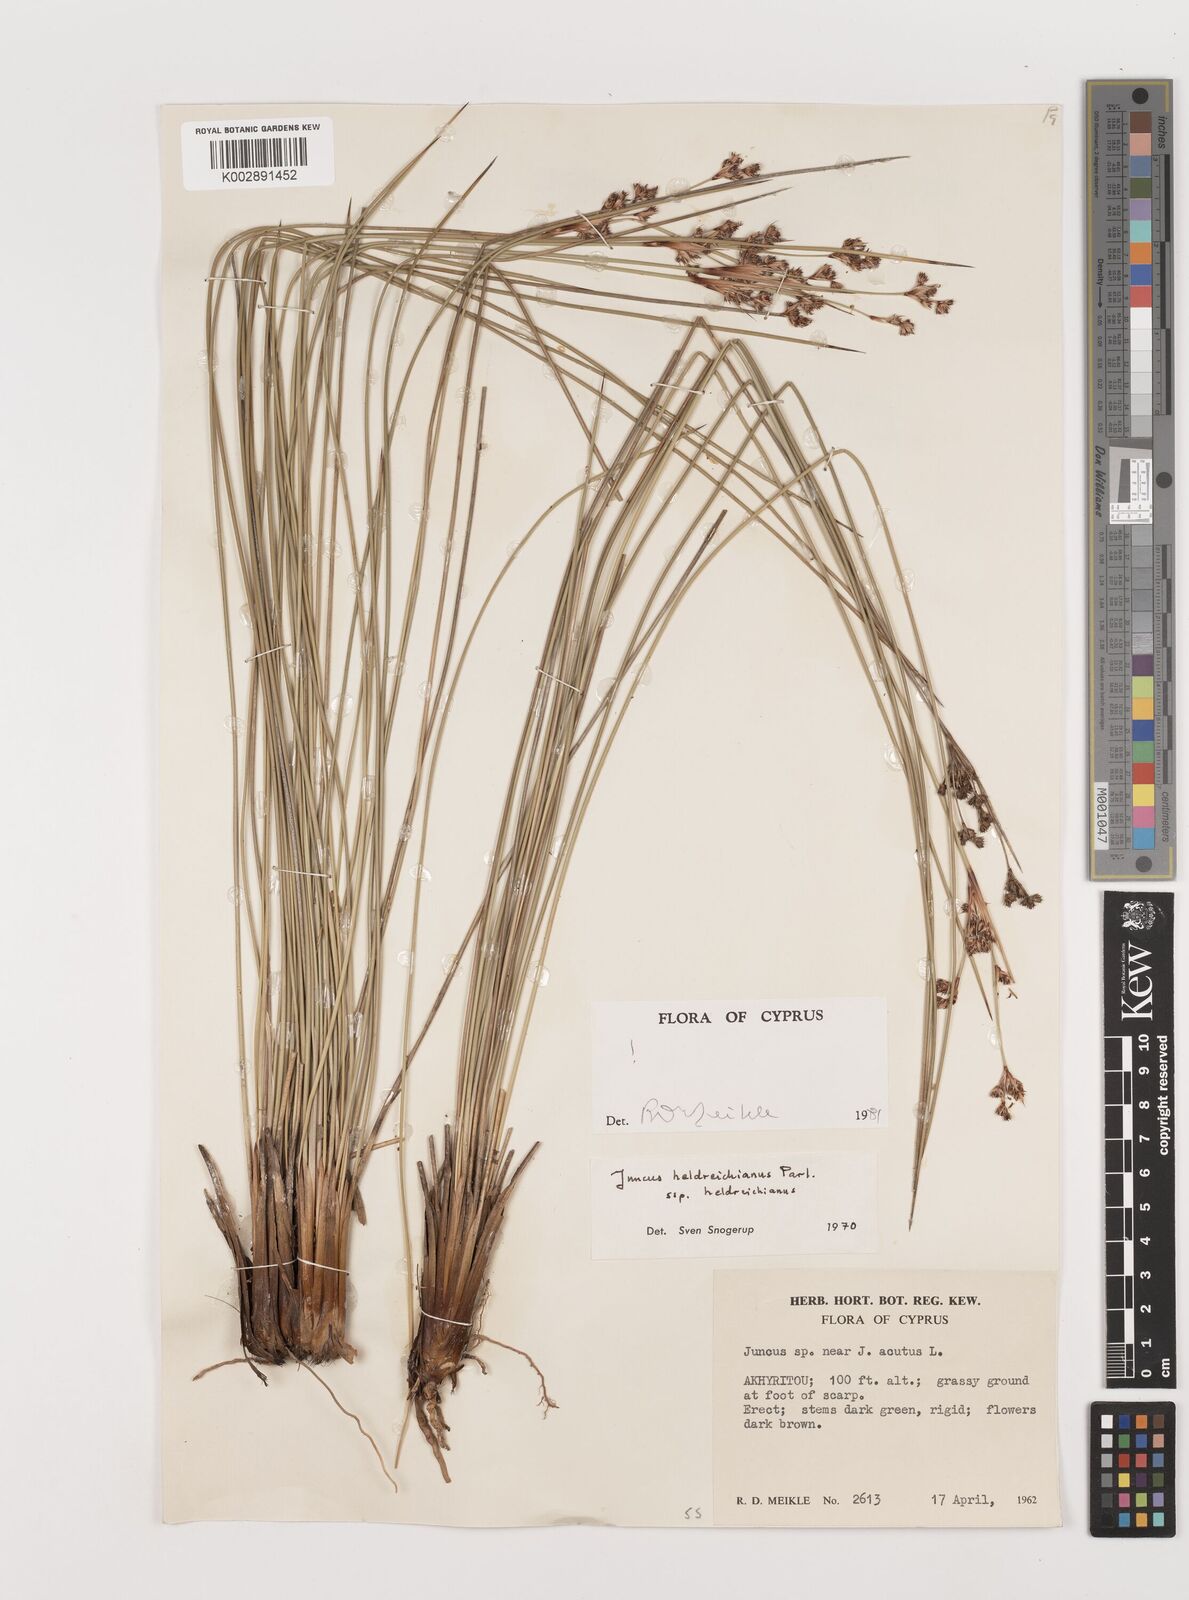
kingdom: Plantae
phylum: Tracheophyta
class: Liliopsida
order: Poales
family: Juncaceae
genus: Juncus
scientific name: Juncus heldreichianus
